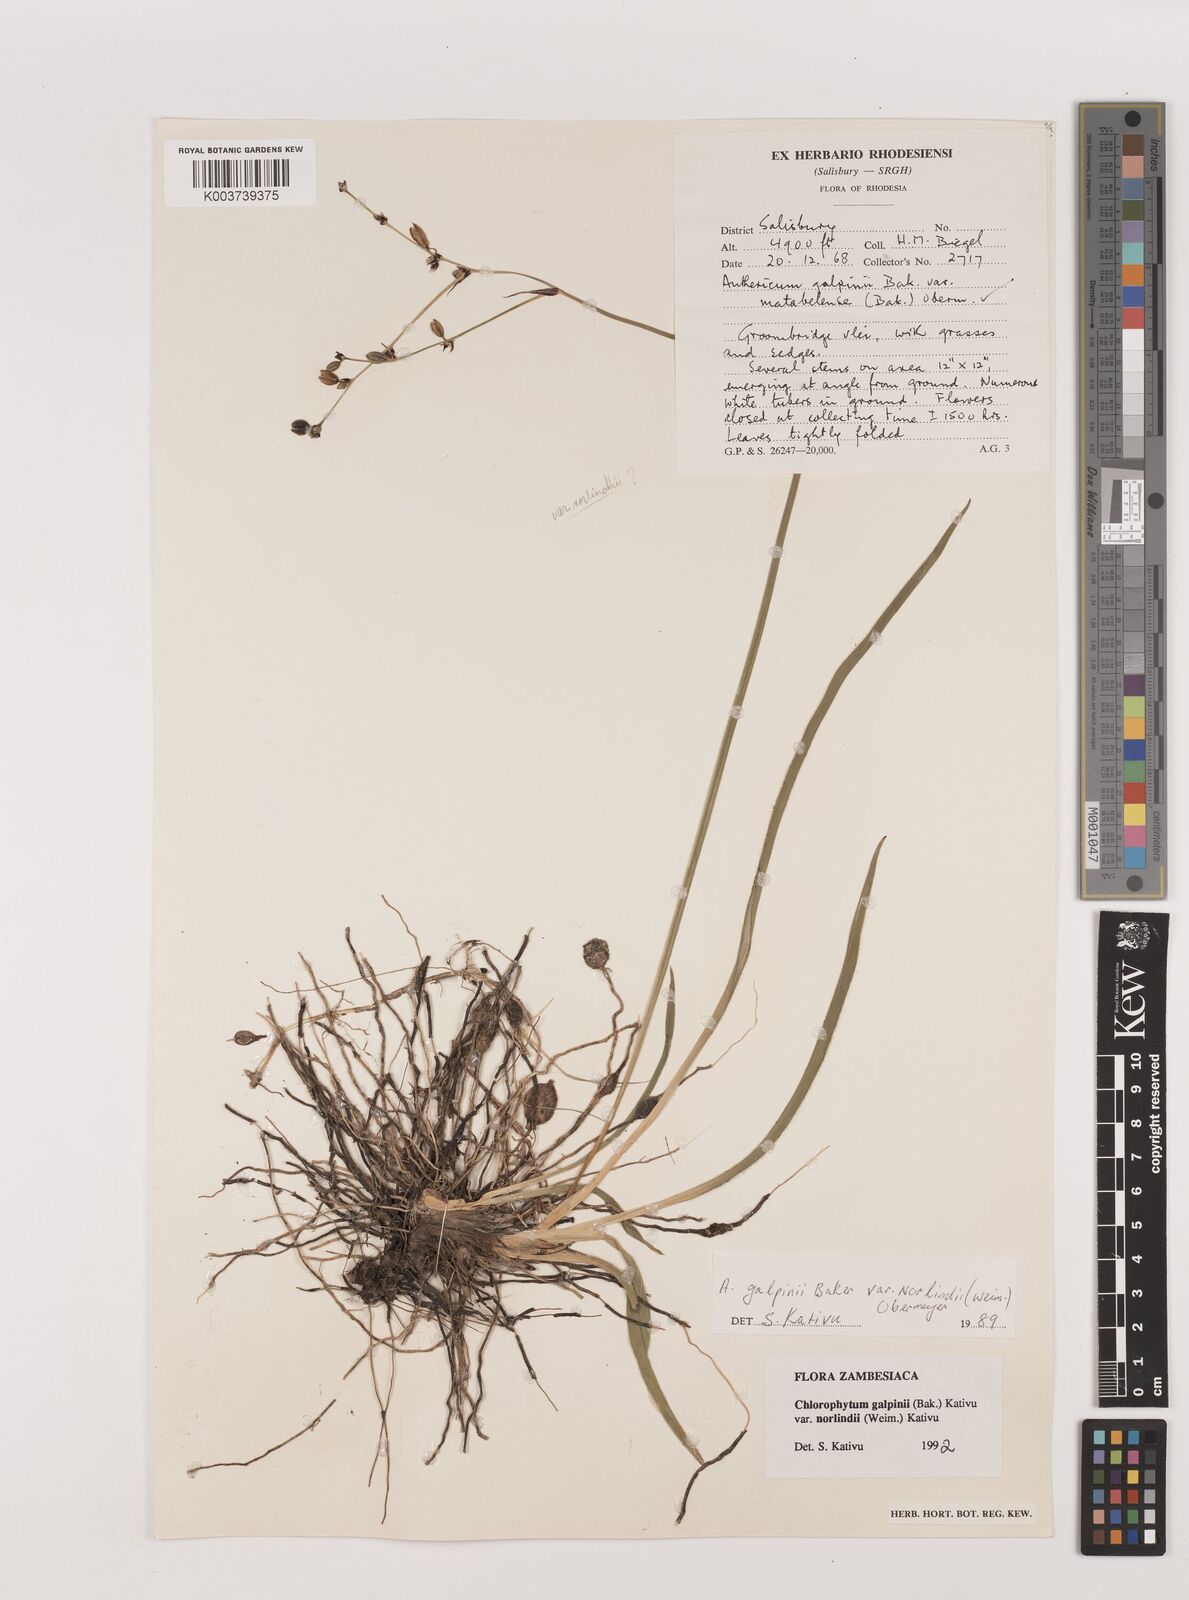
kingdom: Plantae
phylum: Tracheophyta
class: Liliopsida
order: Asparagales
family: Asparagaceae
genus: Chlorophytum
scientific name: Chlorophytum galpinii
